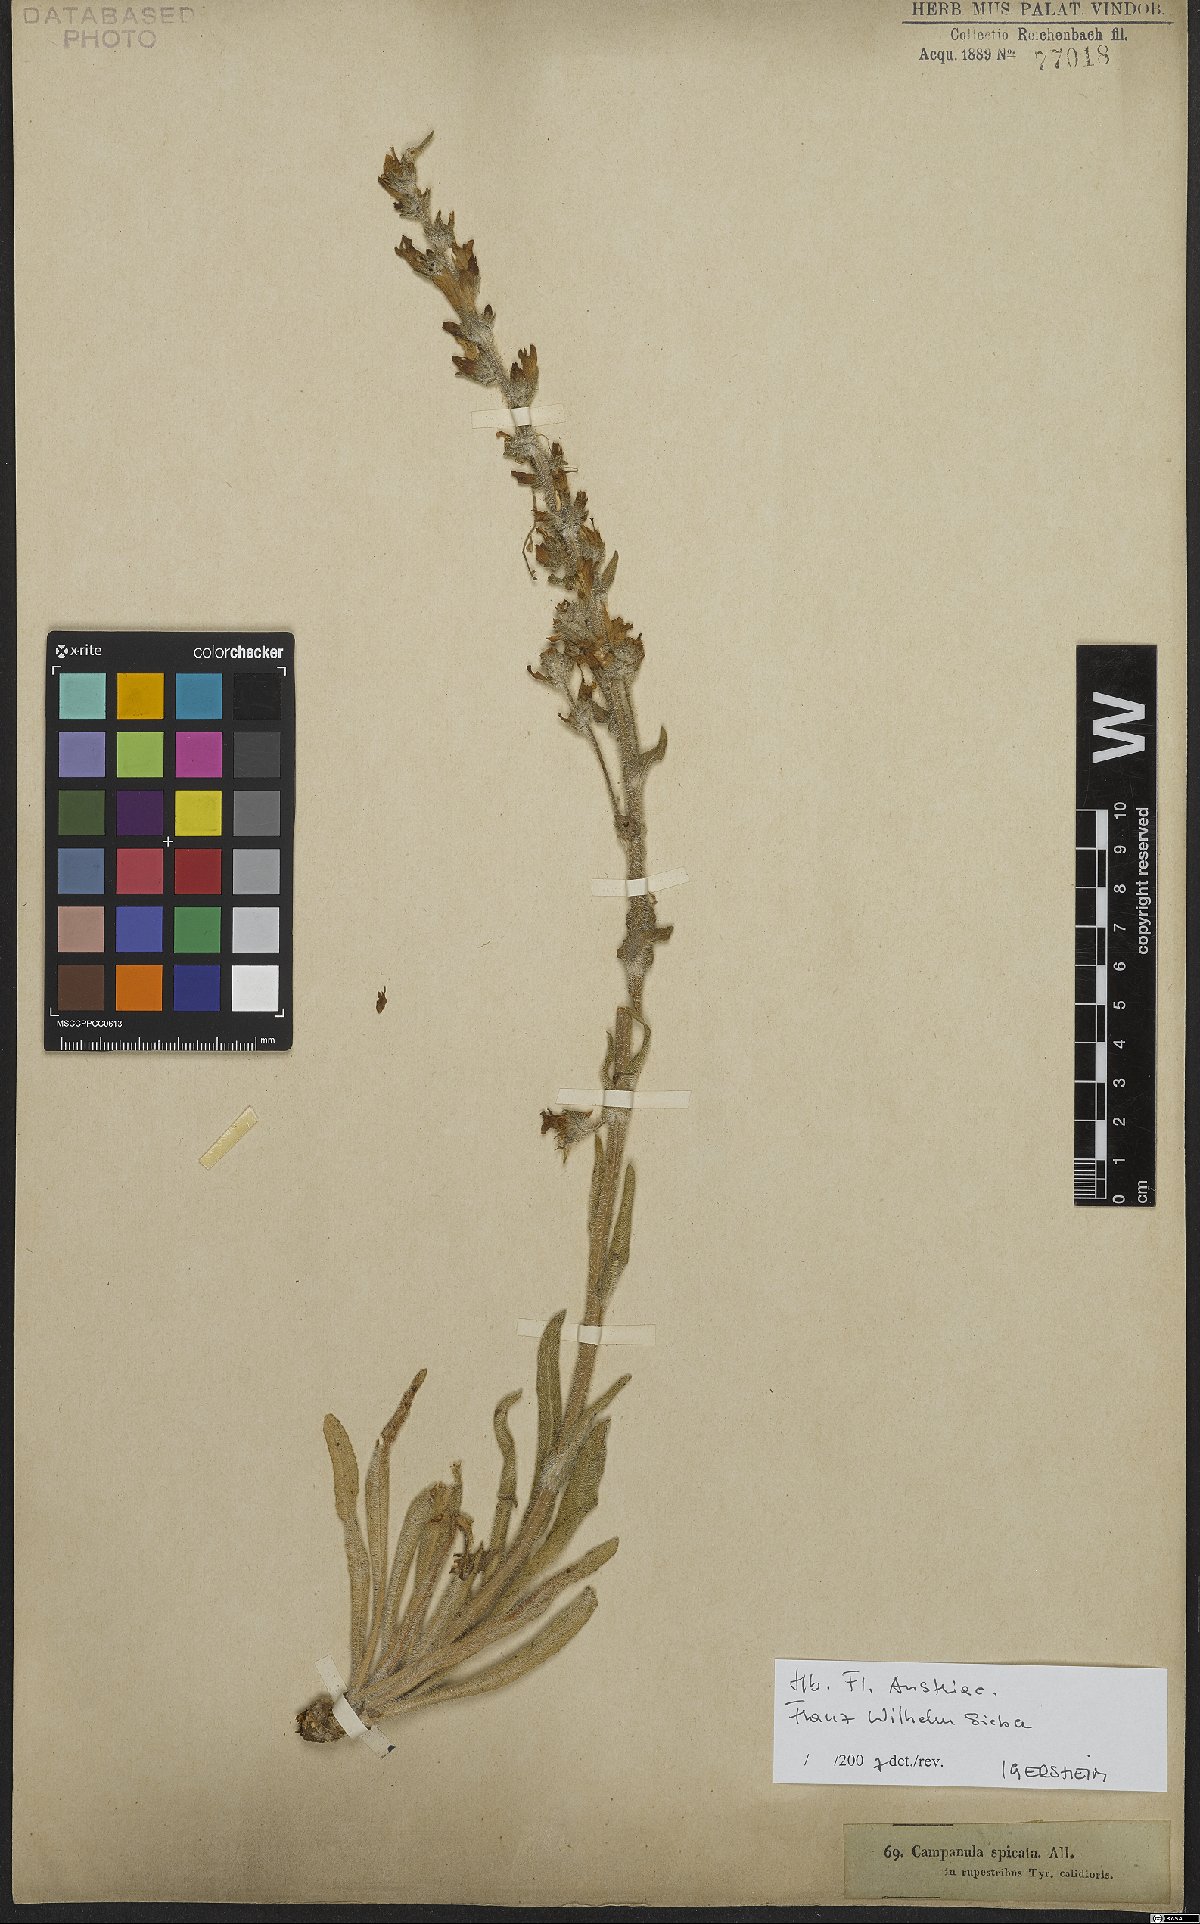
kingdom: Plantae
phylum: Tracheophyta
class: Magnoliopsida
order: Asterales
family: Campanulaceae
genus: Campanula
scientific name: Campanula spicata
